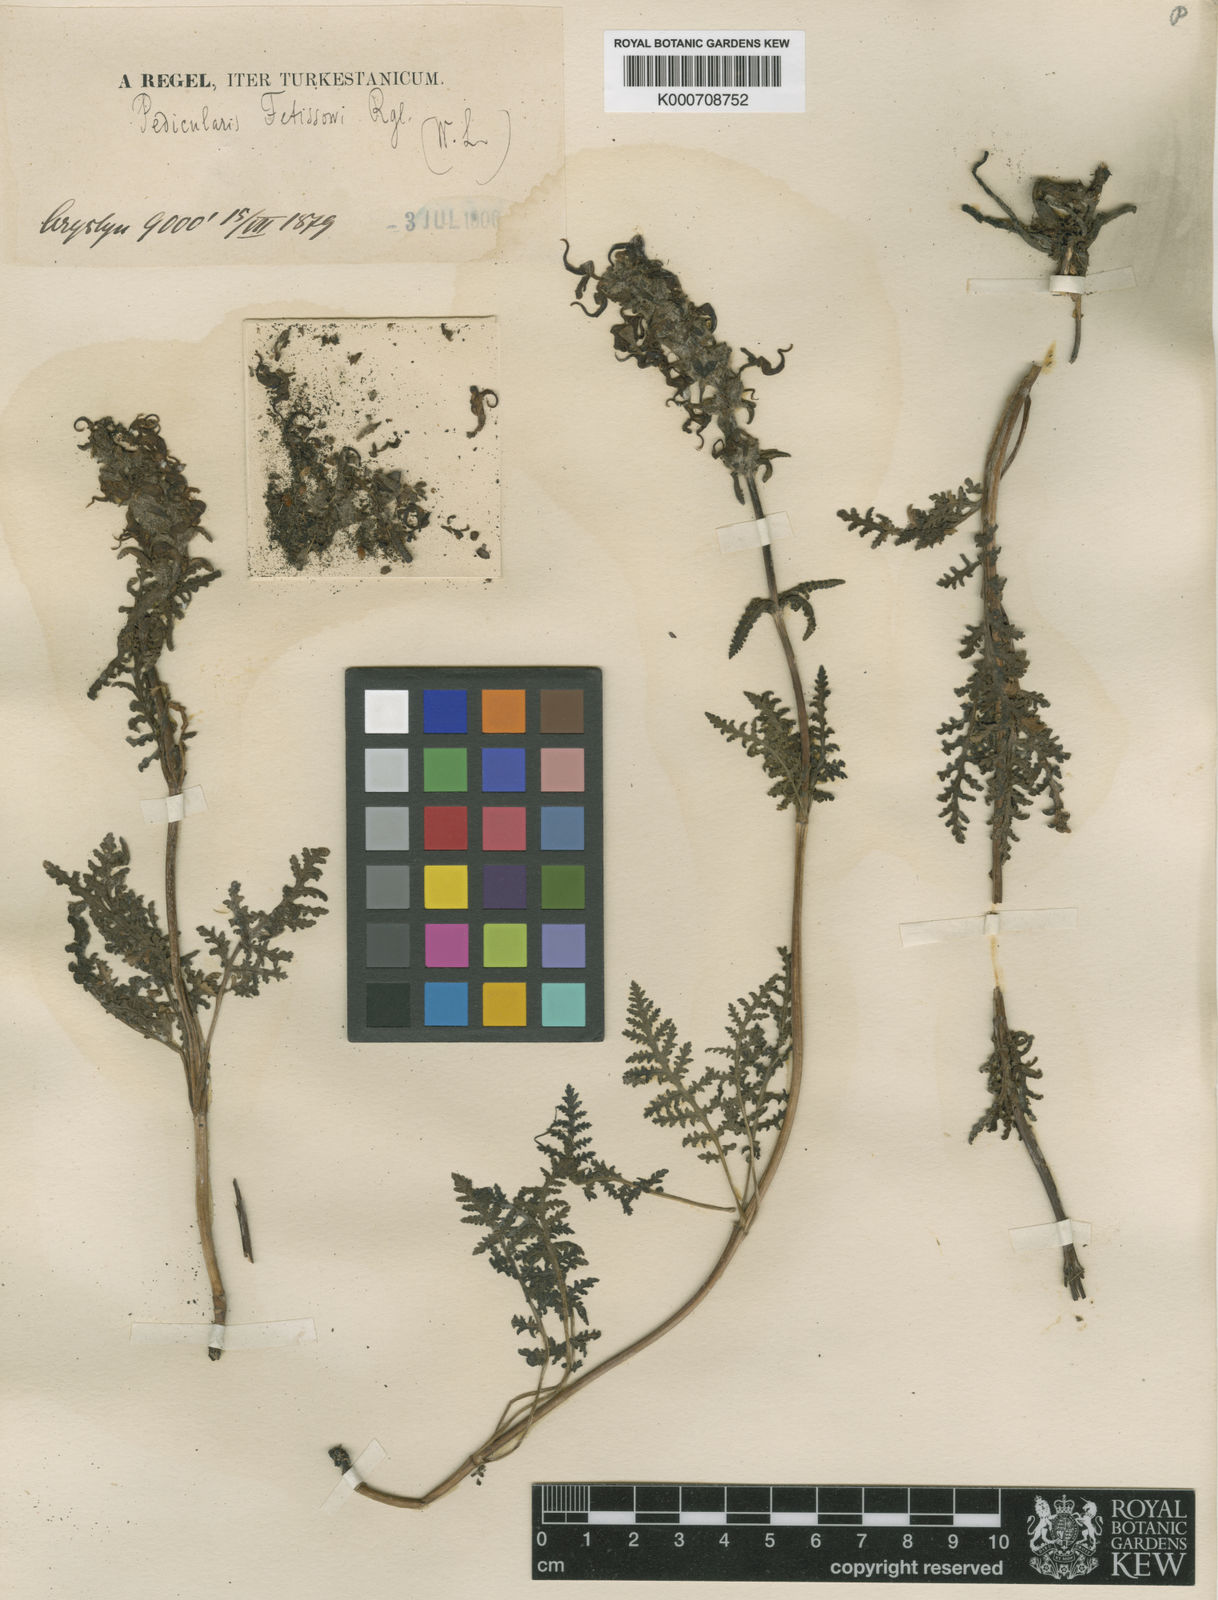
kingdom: Plantae
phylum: Tracheophyta
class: Magnoliopsida
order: Lamiales
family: Orobanchaceae
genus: Pedicularis
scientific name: Pedicularis fetisowii
